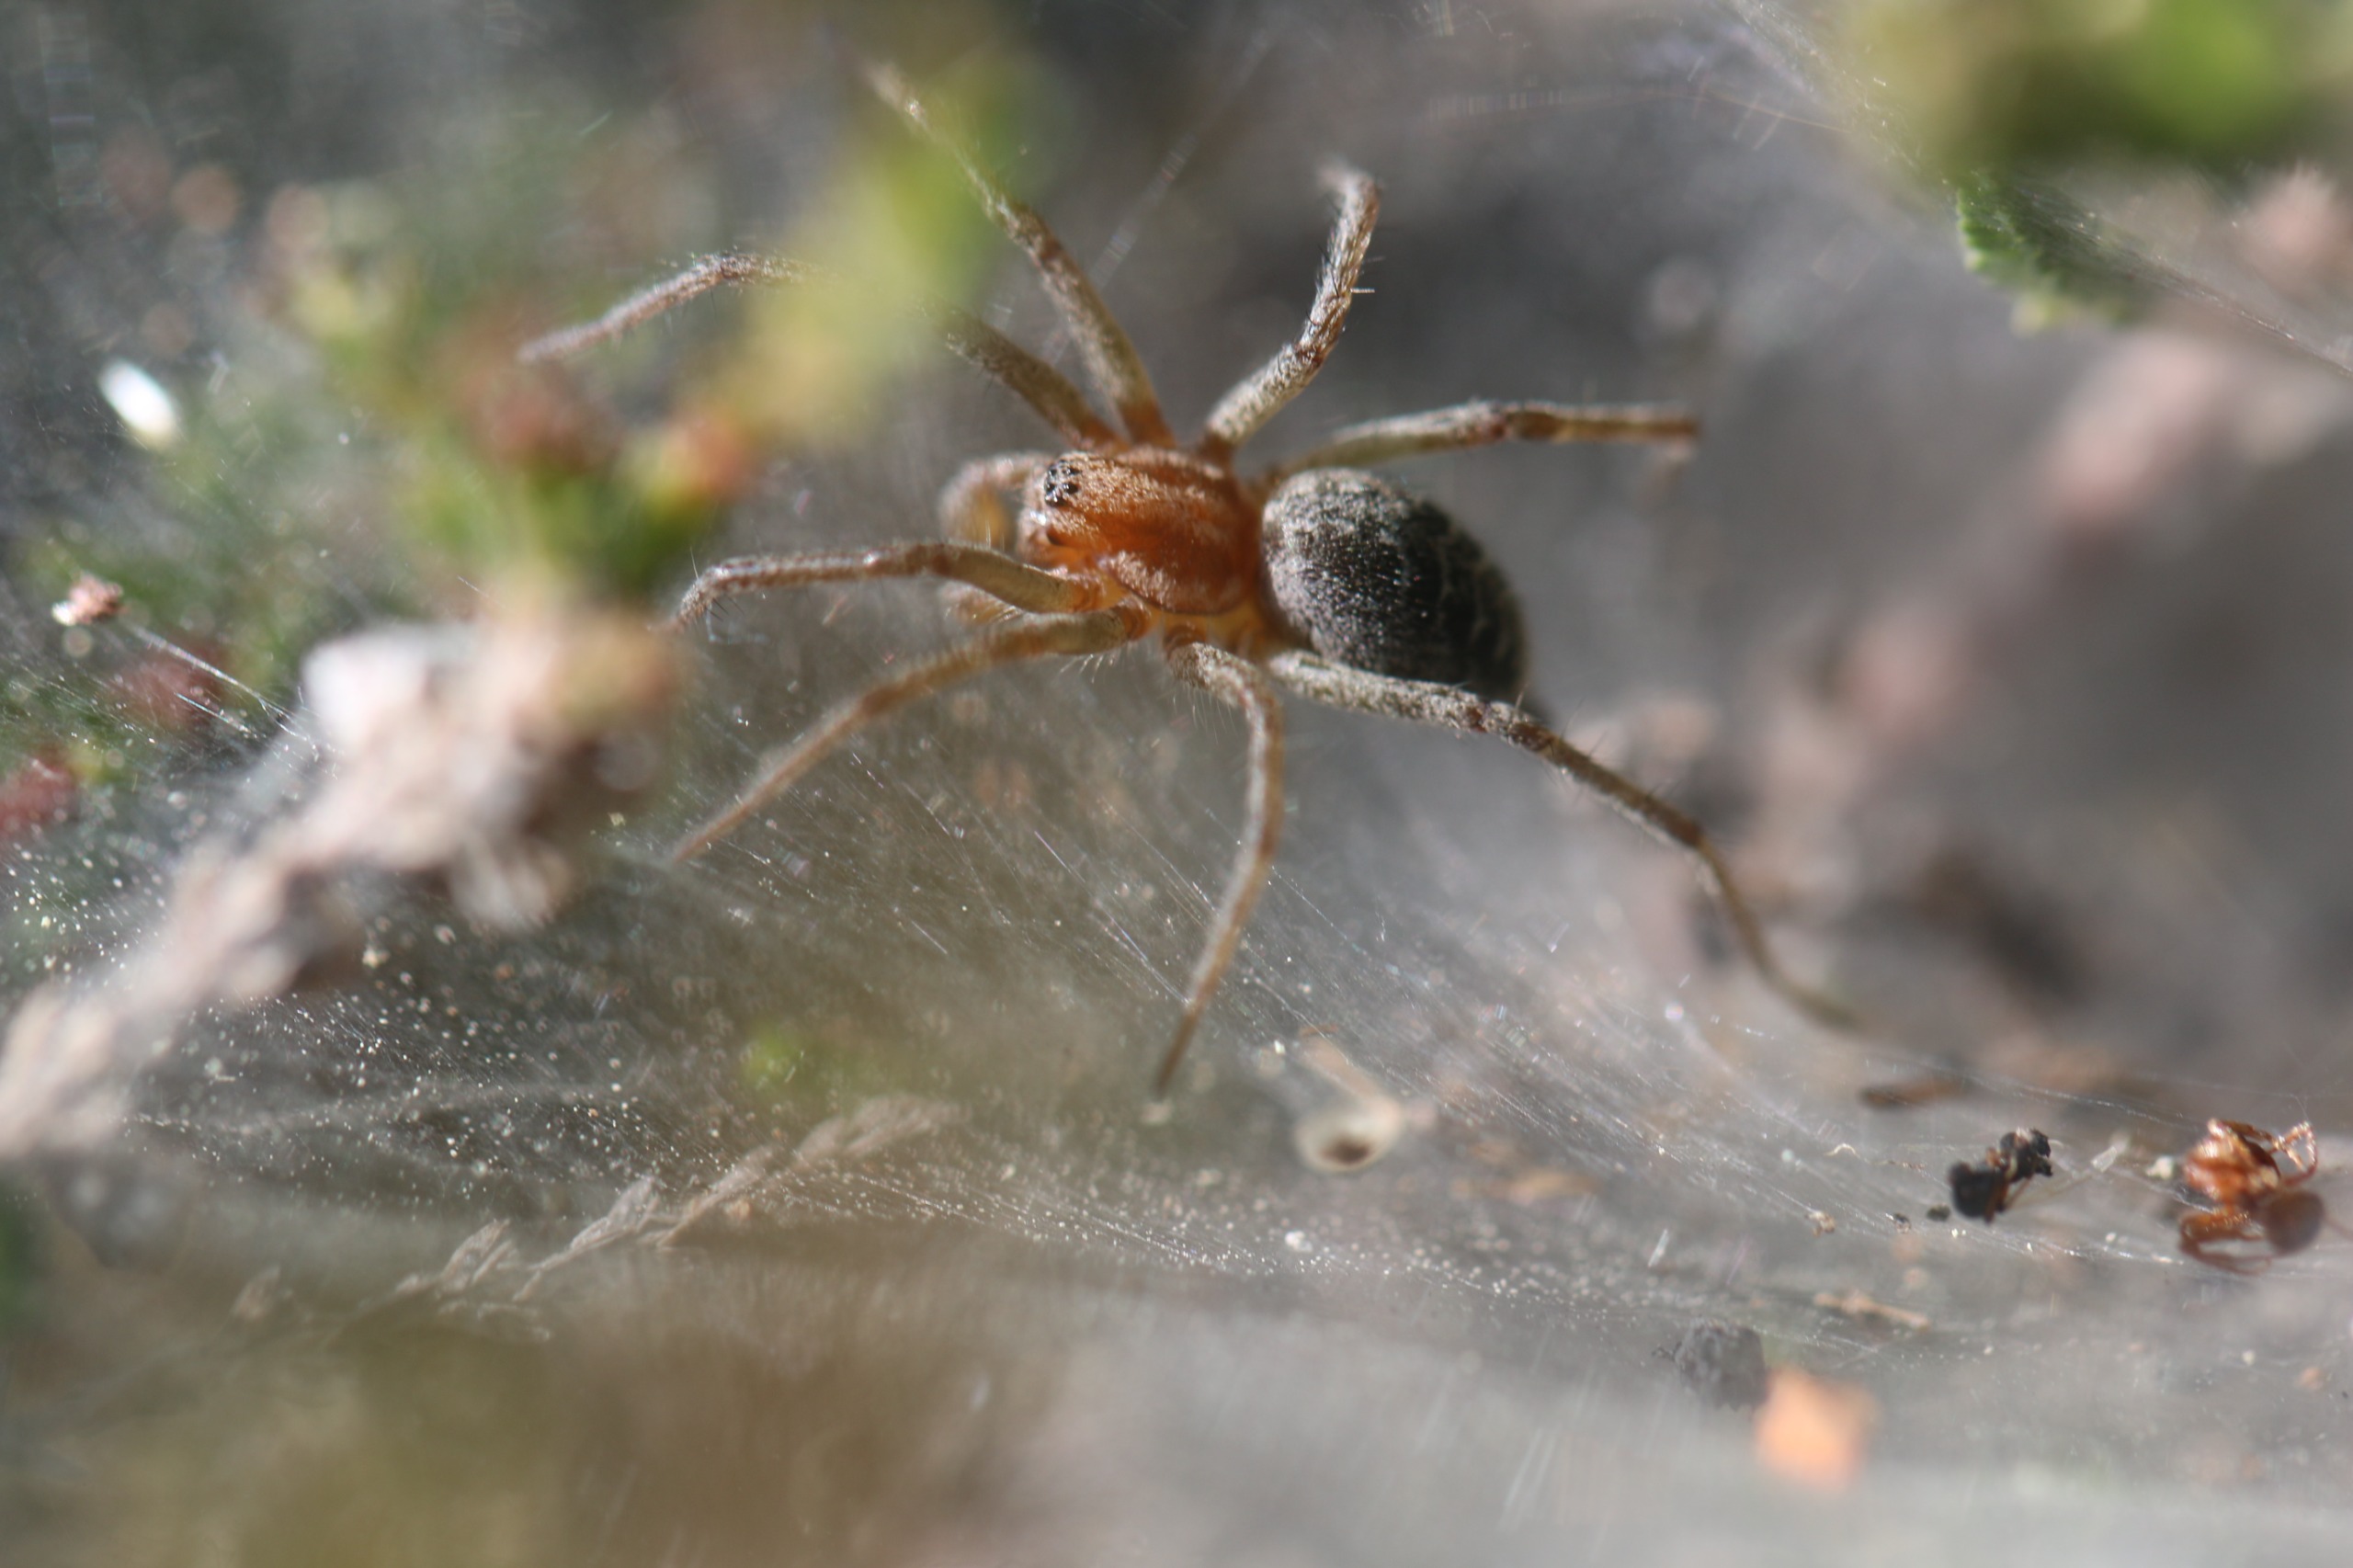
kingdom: Animalia
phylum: Arthropoda
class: Arachnida
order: Araneae
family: Agelenidae
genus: Agelena
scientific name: Agelena labyrinthica
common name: Labyrintedderkop
